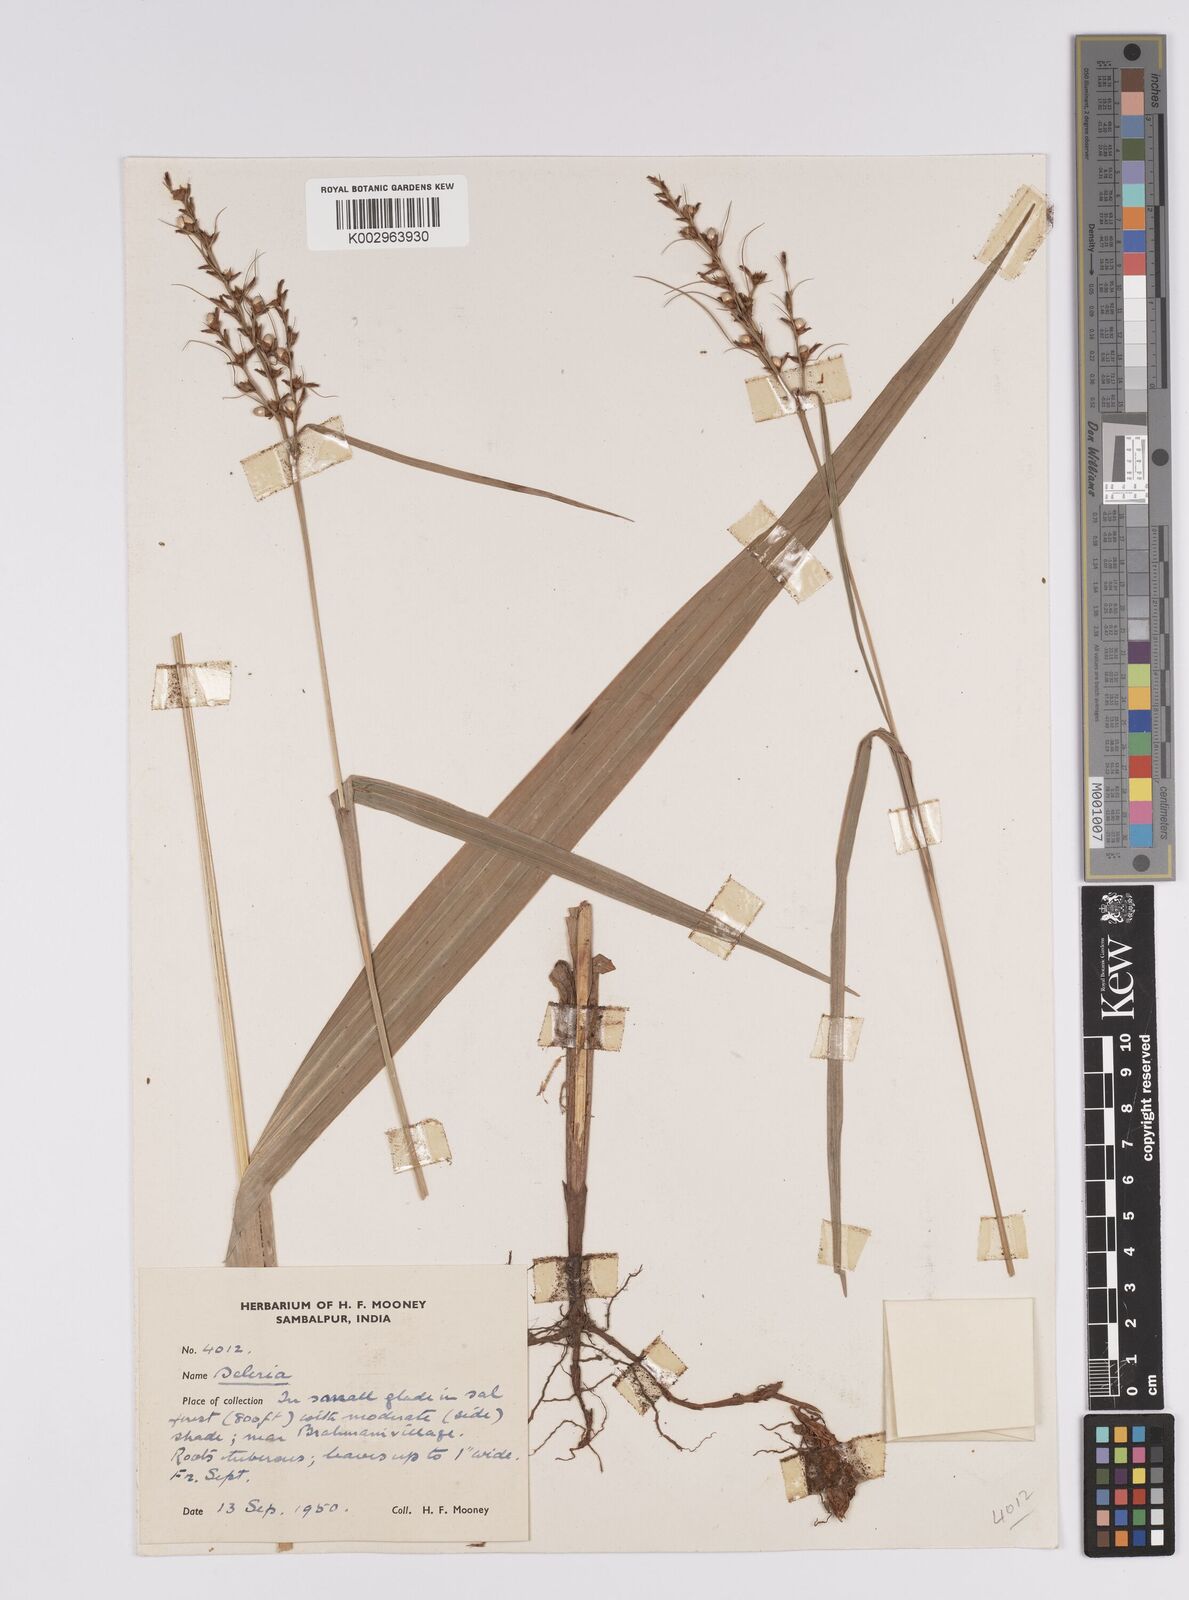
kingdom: Plantae
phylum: Tracheophyta
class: Liliopsida
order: Poales
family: Cyperaceae
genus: Scleria
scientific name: Scleria
